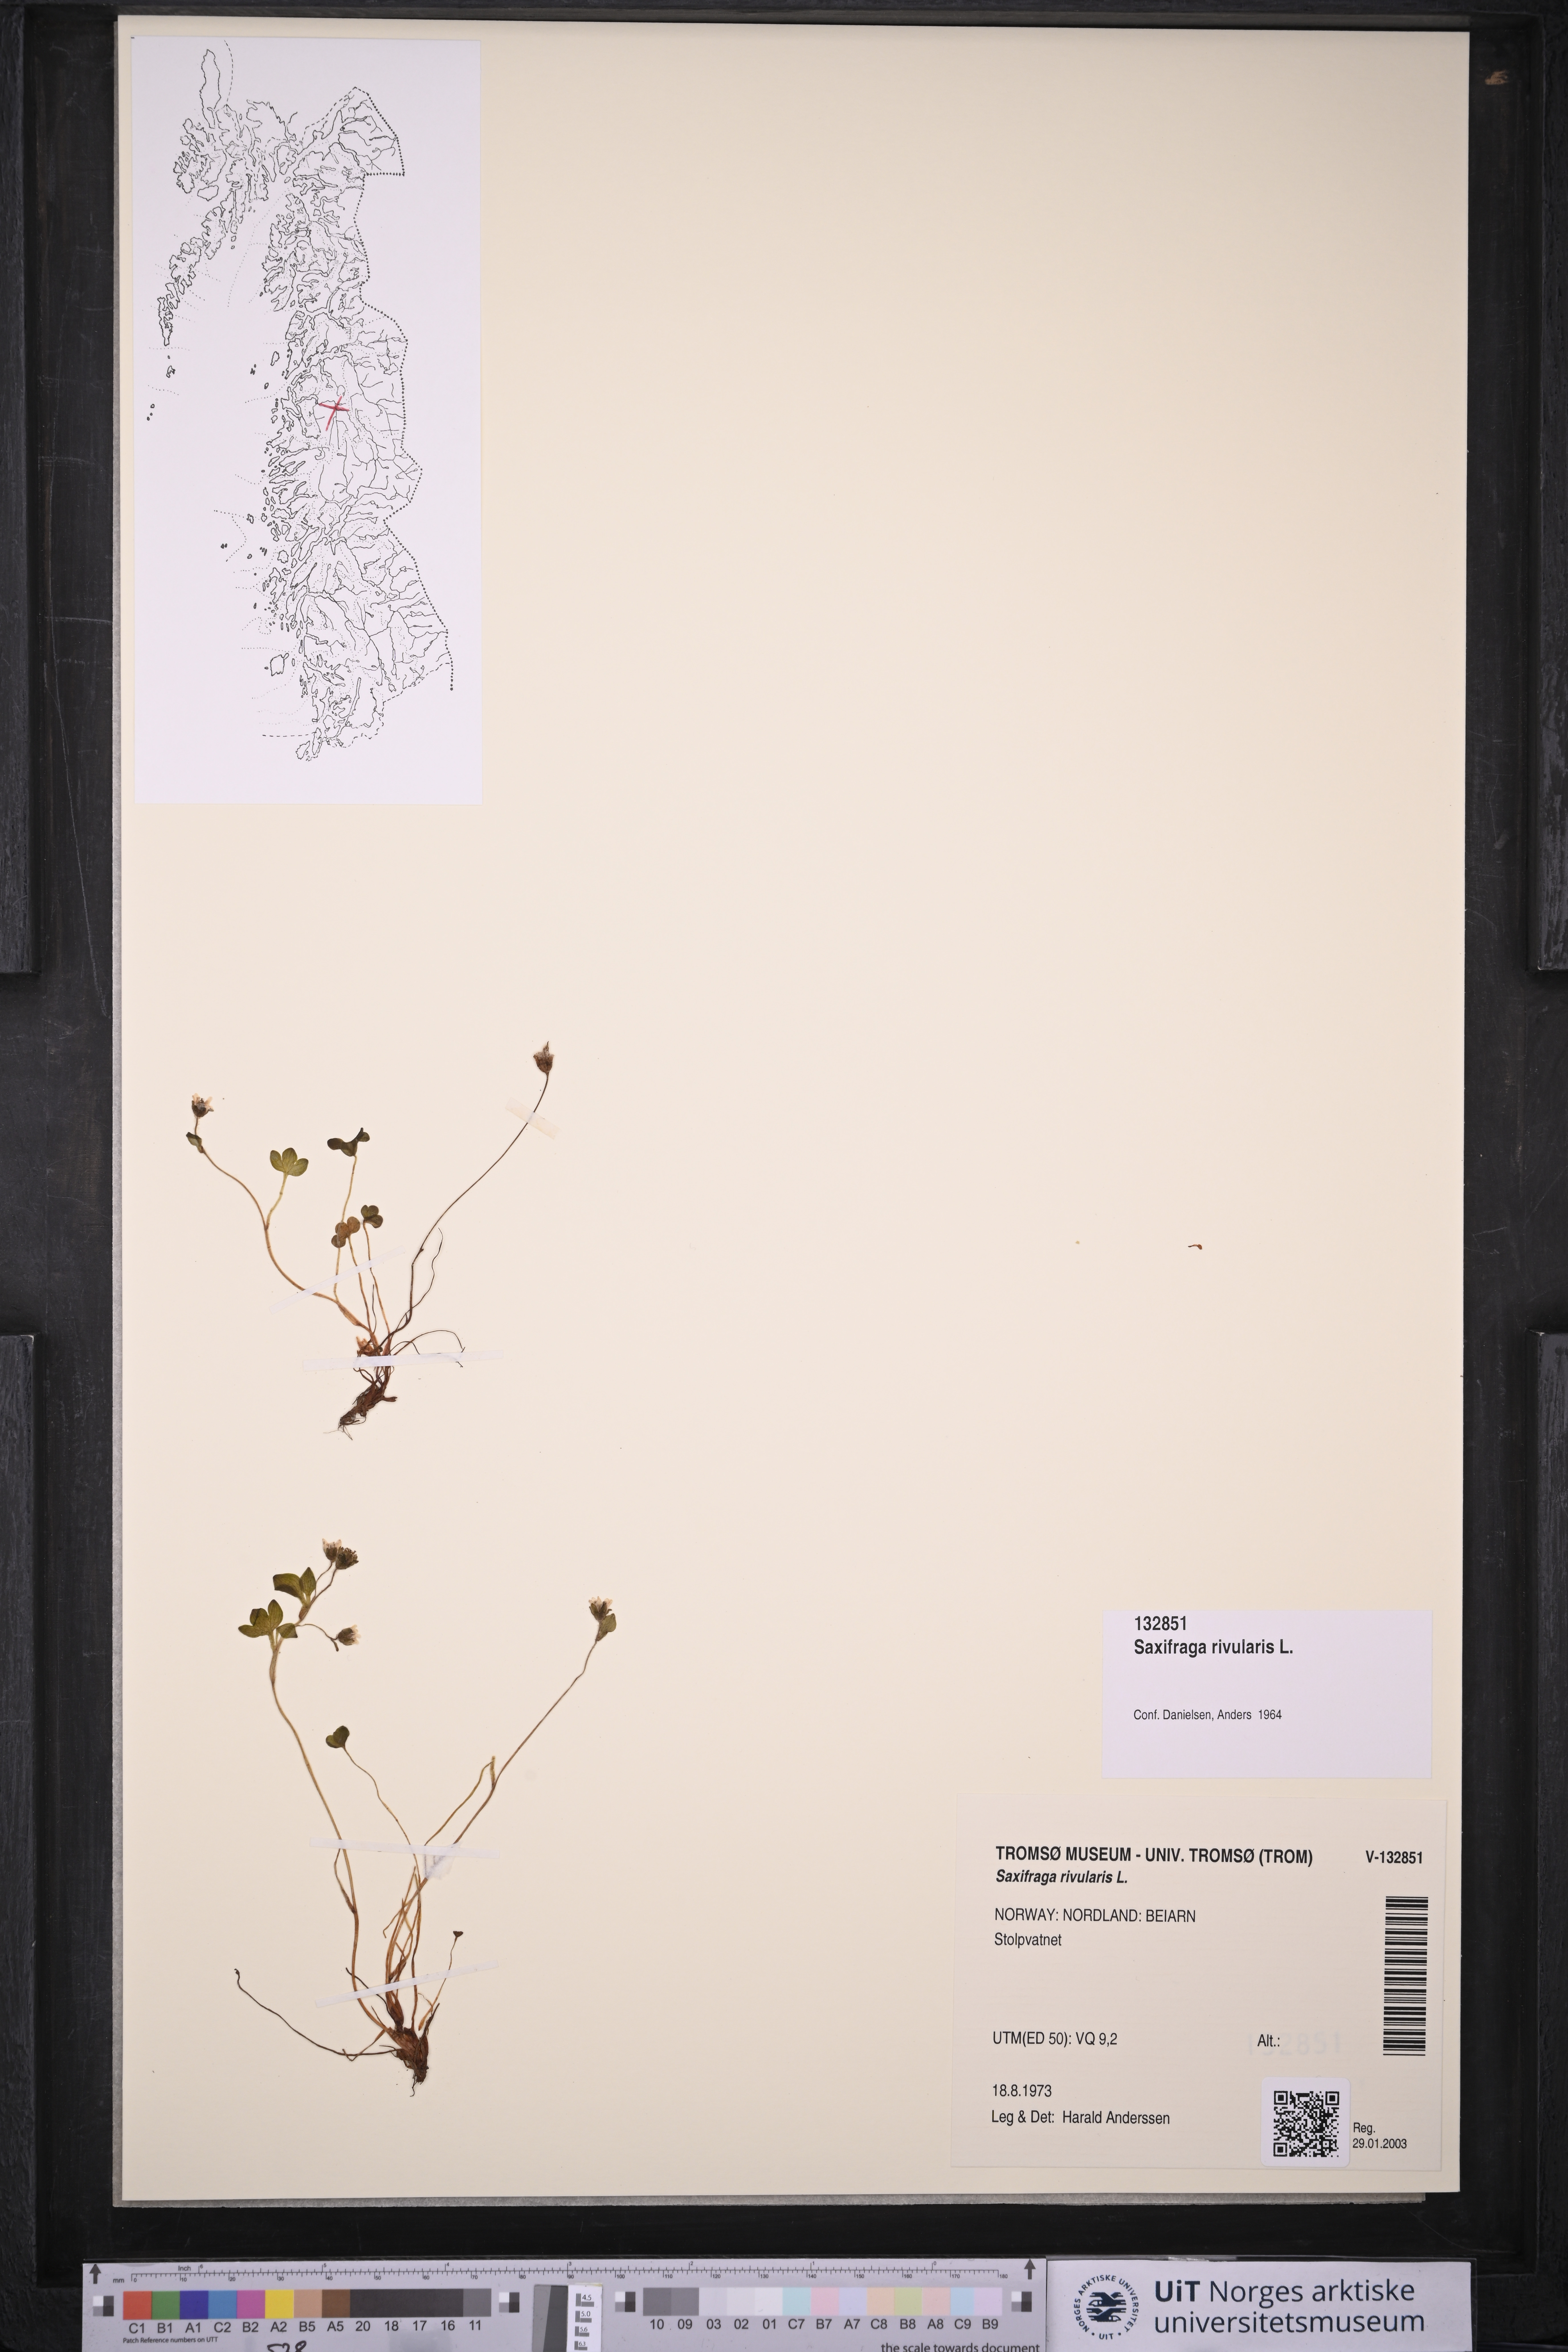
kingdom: Plantae
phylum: Tracheophyta
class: Magnoliopsida
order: Saxifragales
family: Saxifragaceae
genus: Saxifraga
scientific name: Saxifraga rivularis
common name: Highland saxifrage
